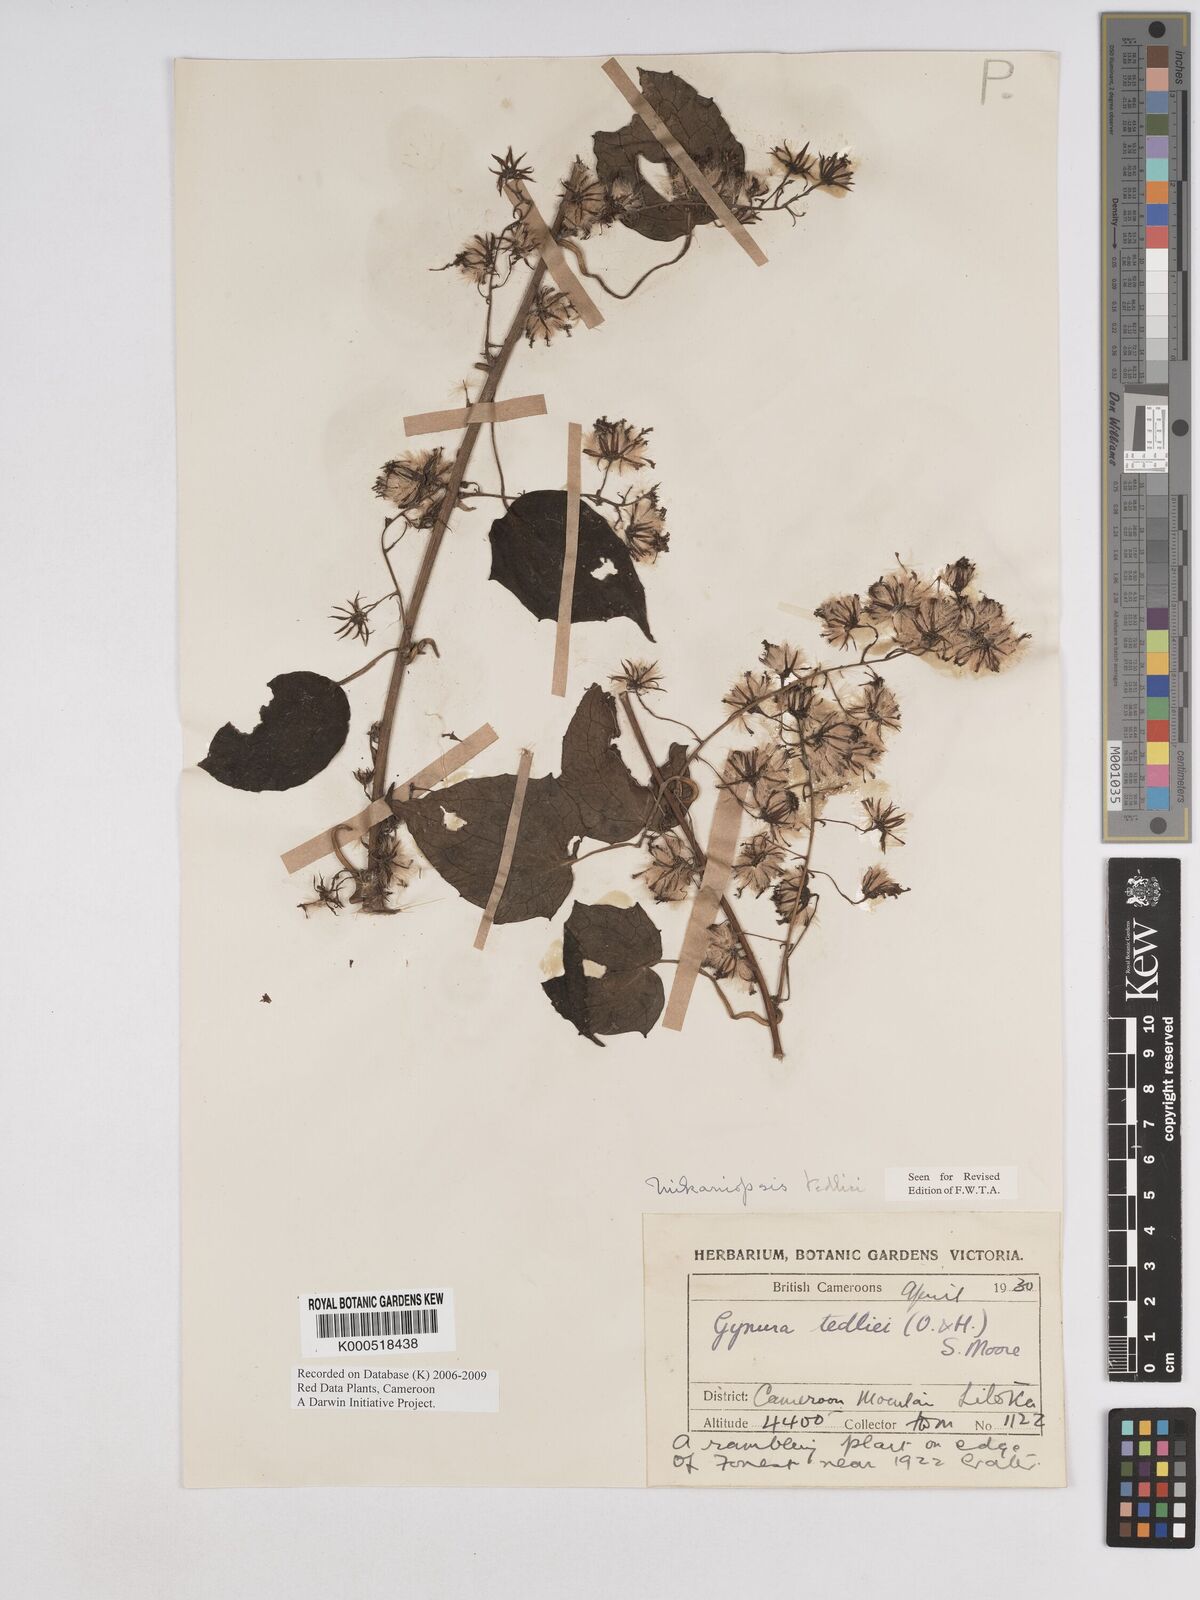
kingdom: Plantae
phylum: Tracheophyta
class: Magnoliopsida
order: Asterales
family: Asteraceae
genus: Mikaniopsis
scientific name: Mikaniopsis tedliei
